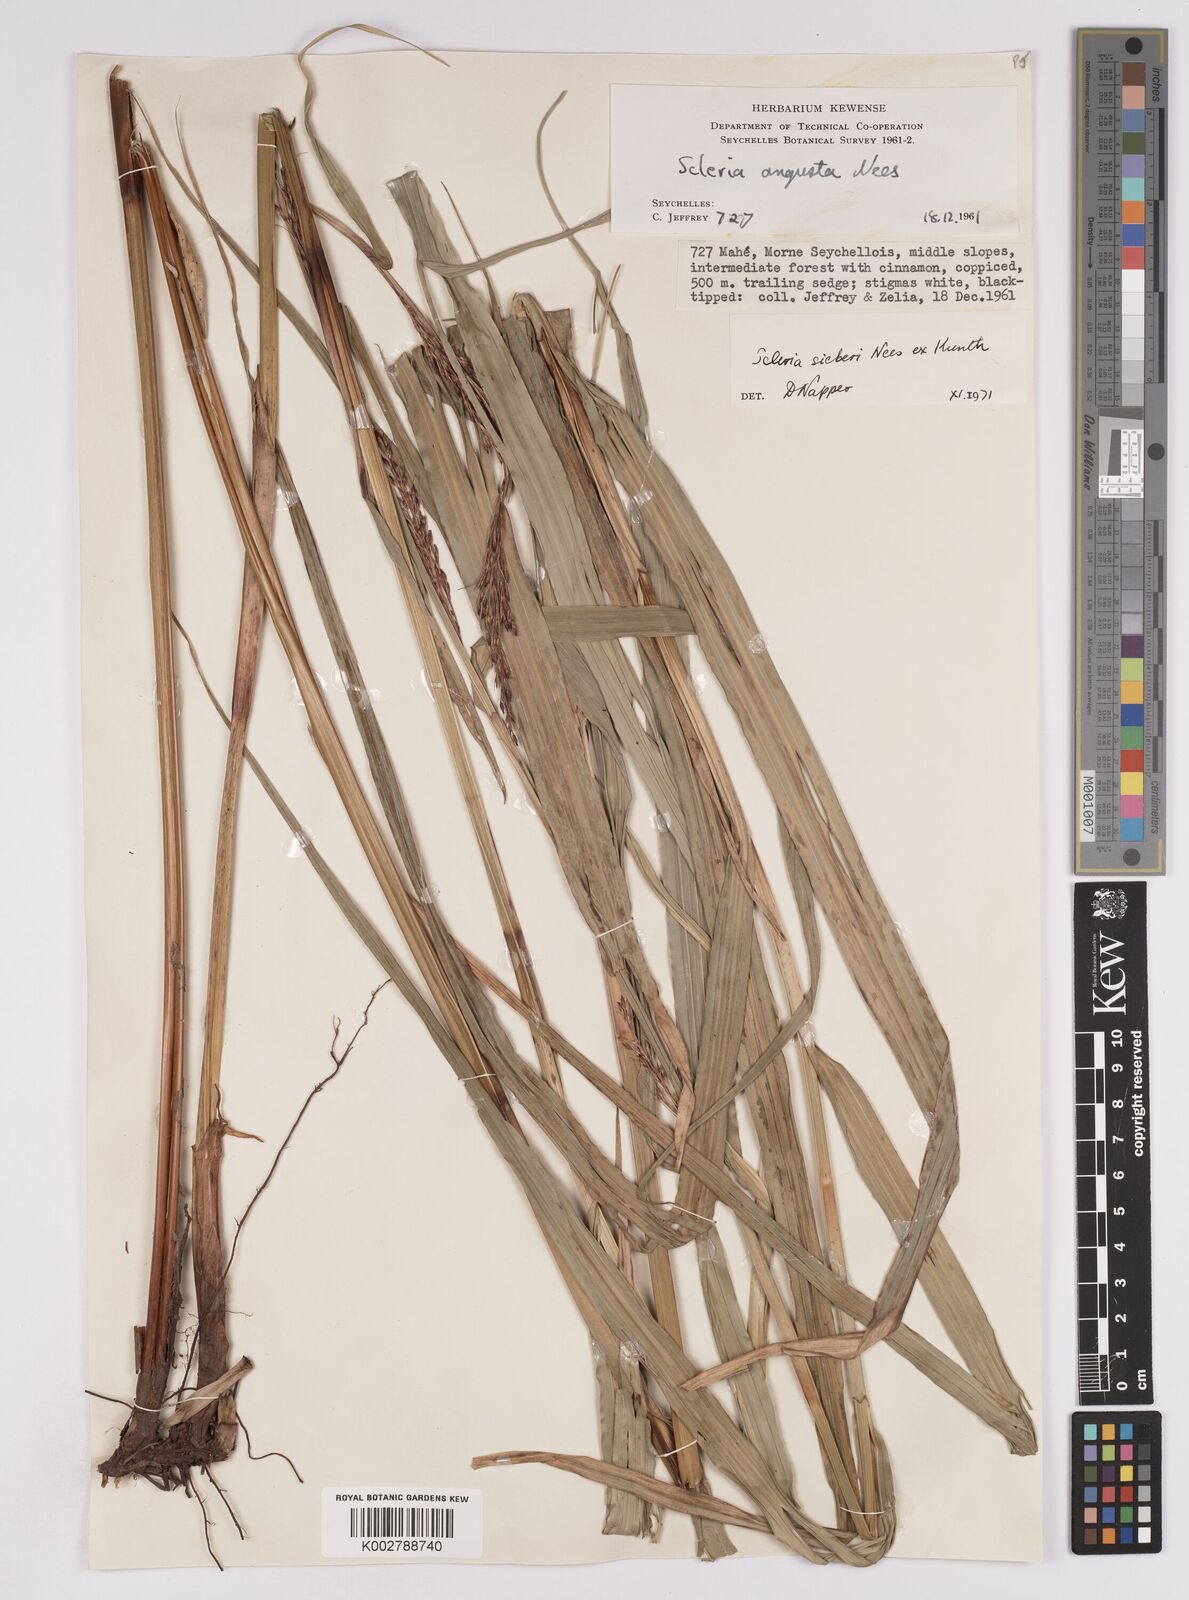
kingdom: Plantae
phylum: Tracheophyta
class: Liliopsida
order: Poales
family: Cyperaceae
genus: Scleria
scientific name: Scleria gaertneri
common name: Cortadera blanca
